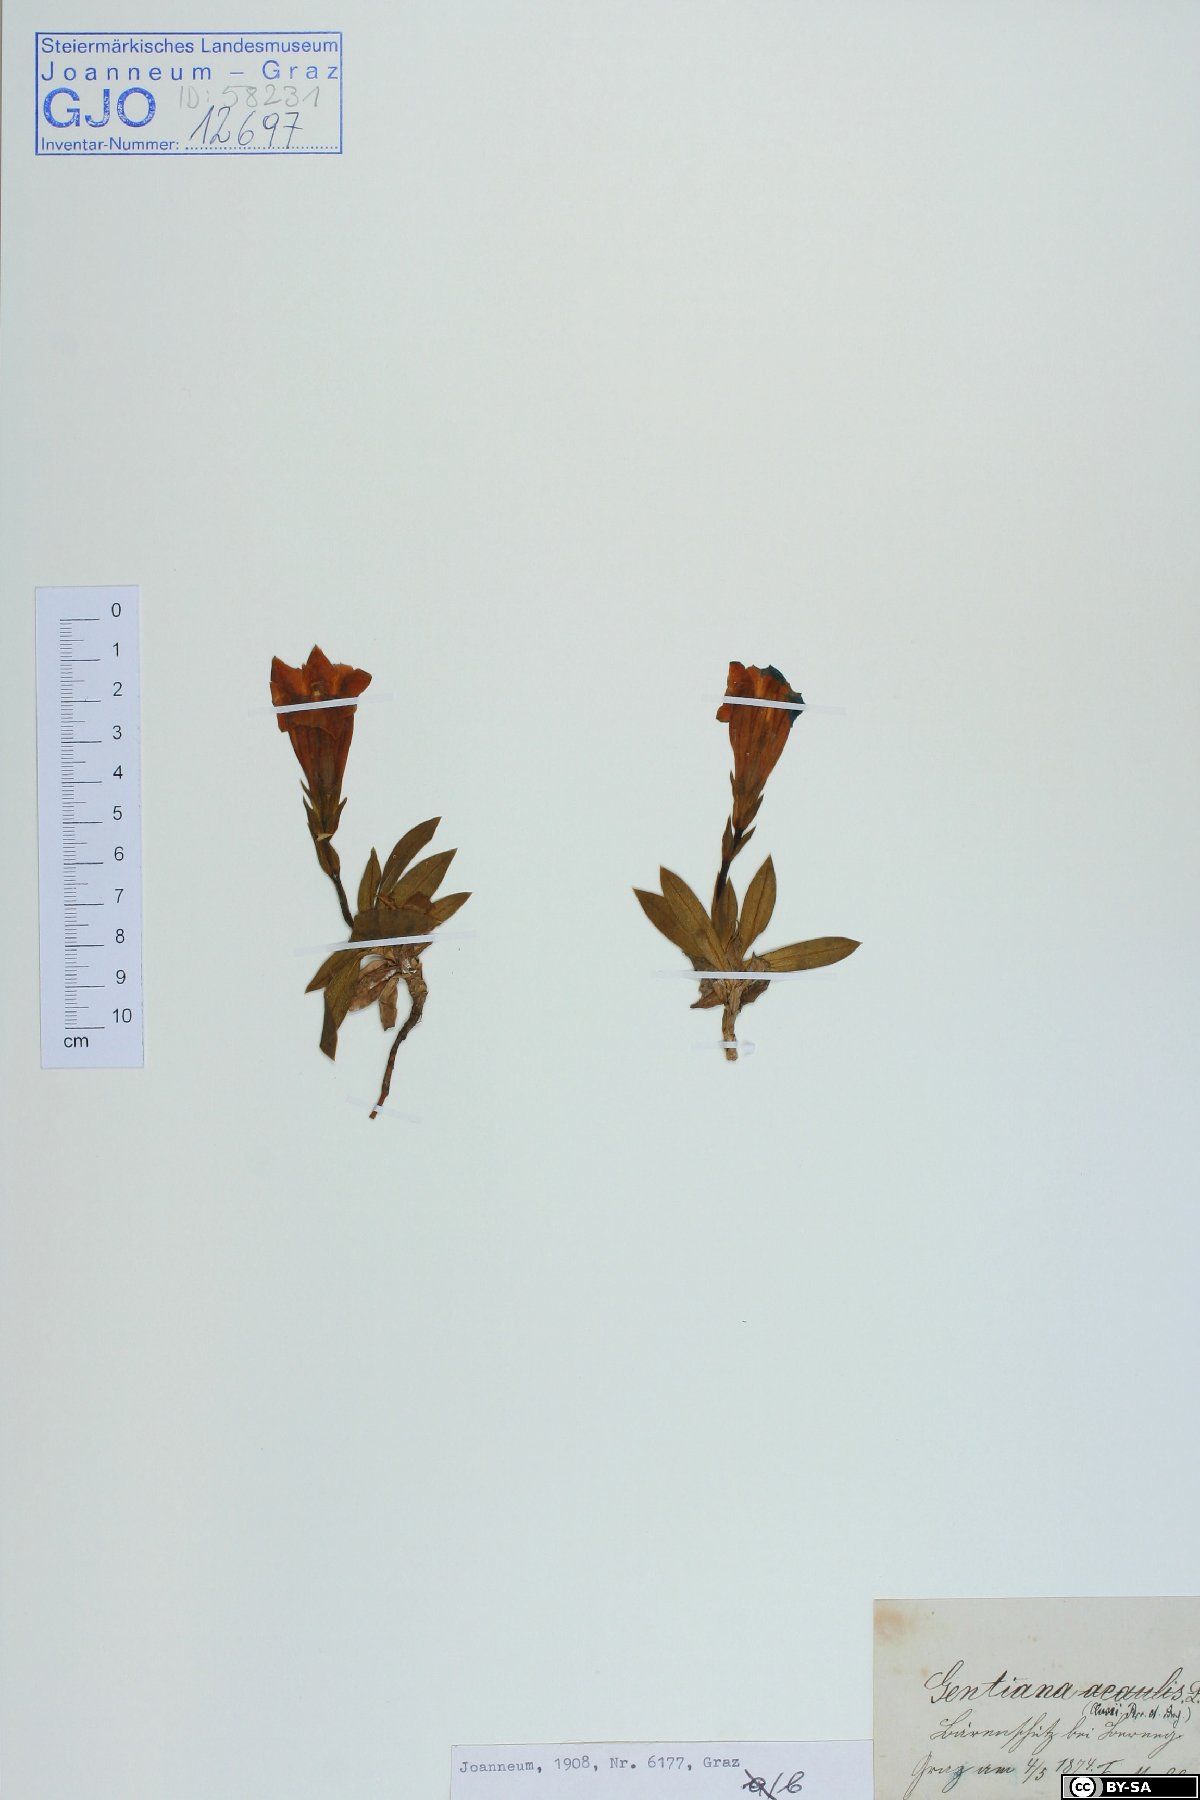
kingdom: Plantae
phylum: Tracheophyta
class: Magnoliopsida
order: Gentianales
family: Gentianaceae
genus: Gentiana
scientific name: Gentiana clusii
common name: Trumpet gentian
